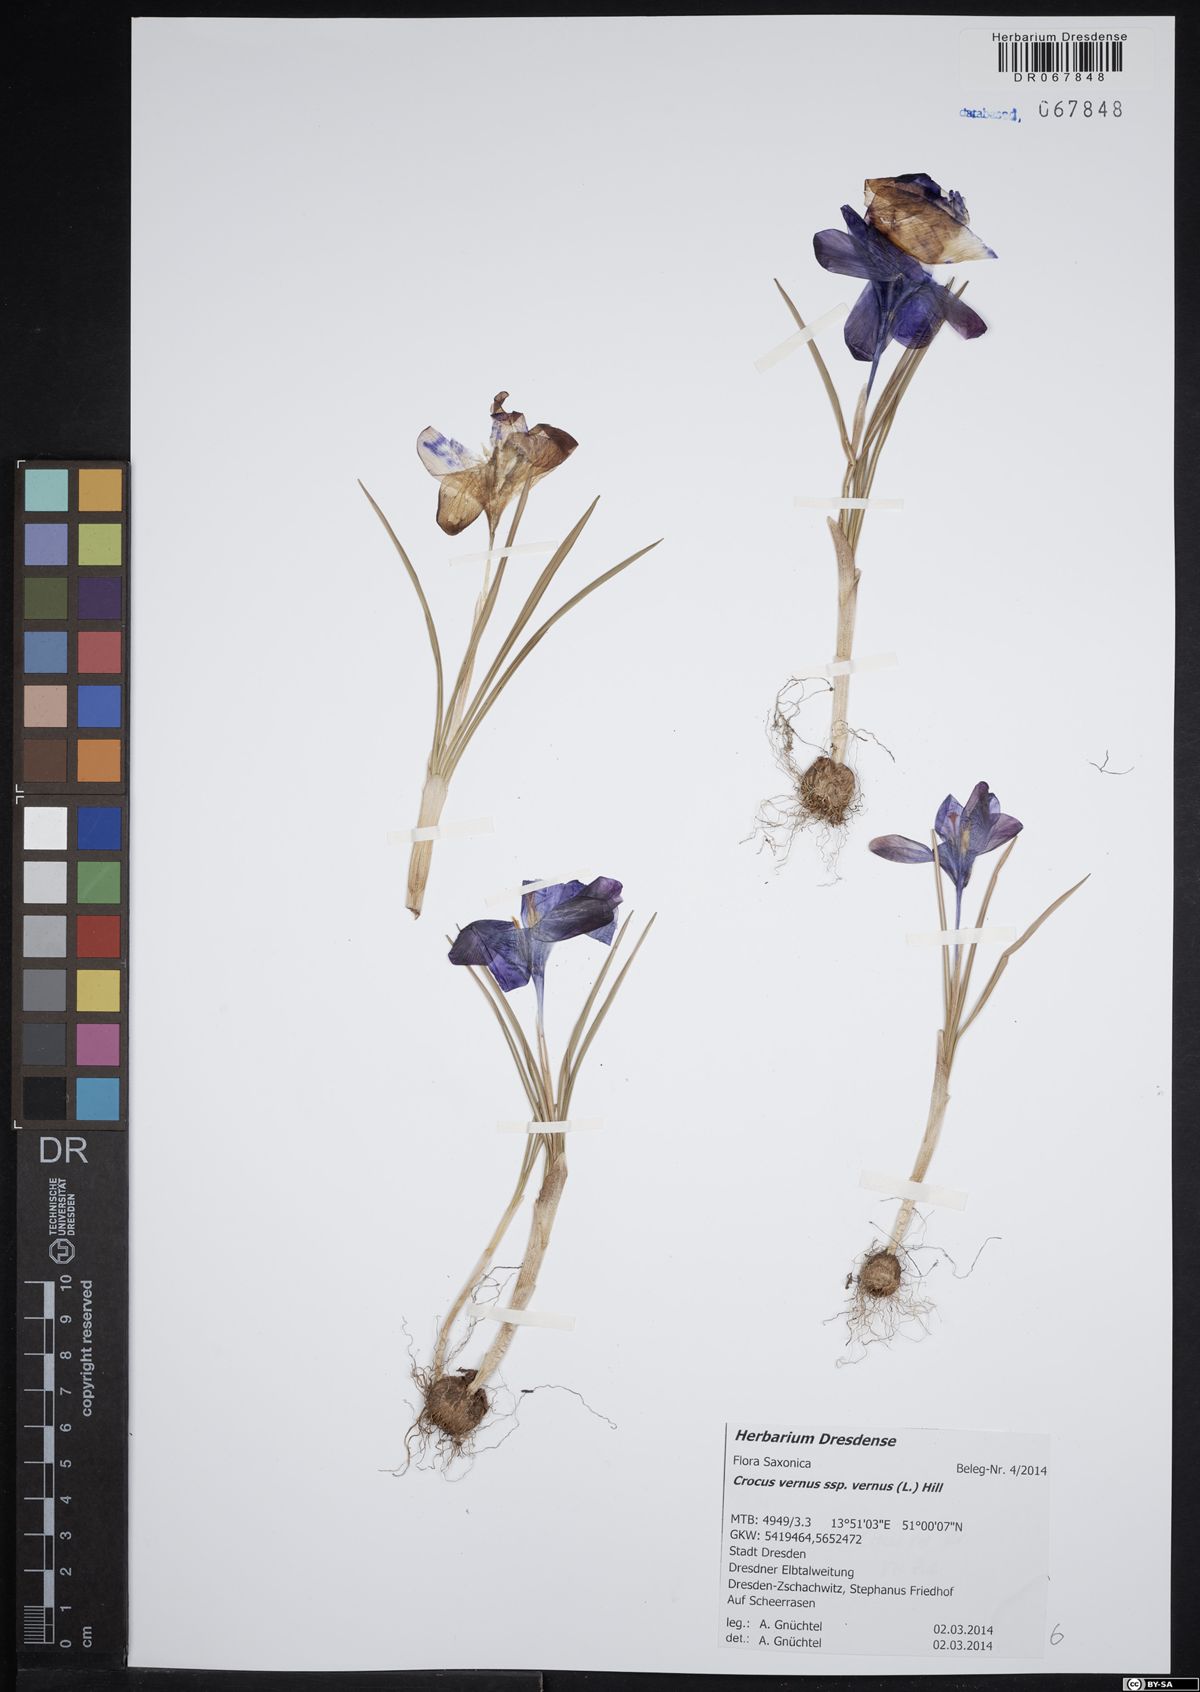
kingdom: Plantae
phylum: Tracheophyta
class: Liliopsida
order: Asparagales
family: Iridaceae
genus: Crocus
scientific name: Crocus vernus
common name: Spring crocus
